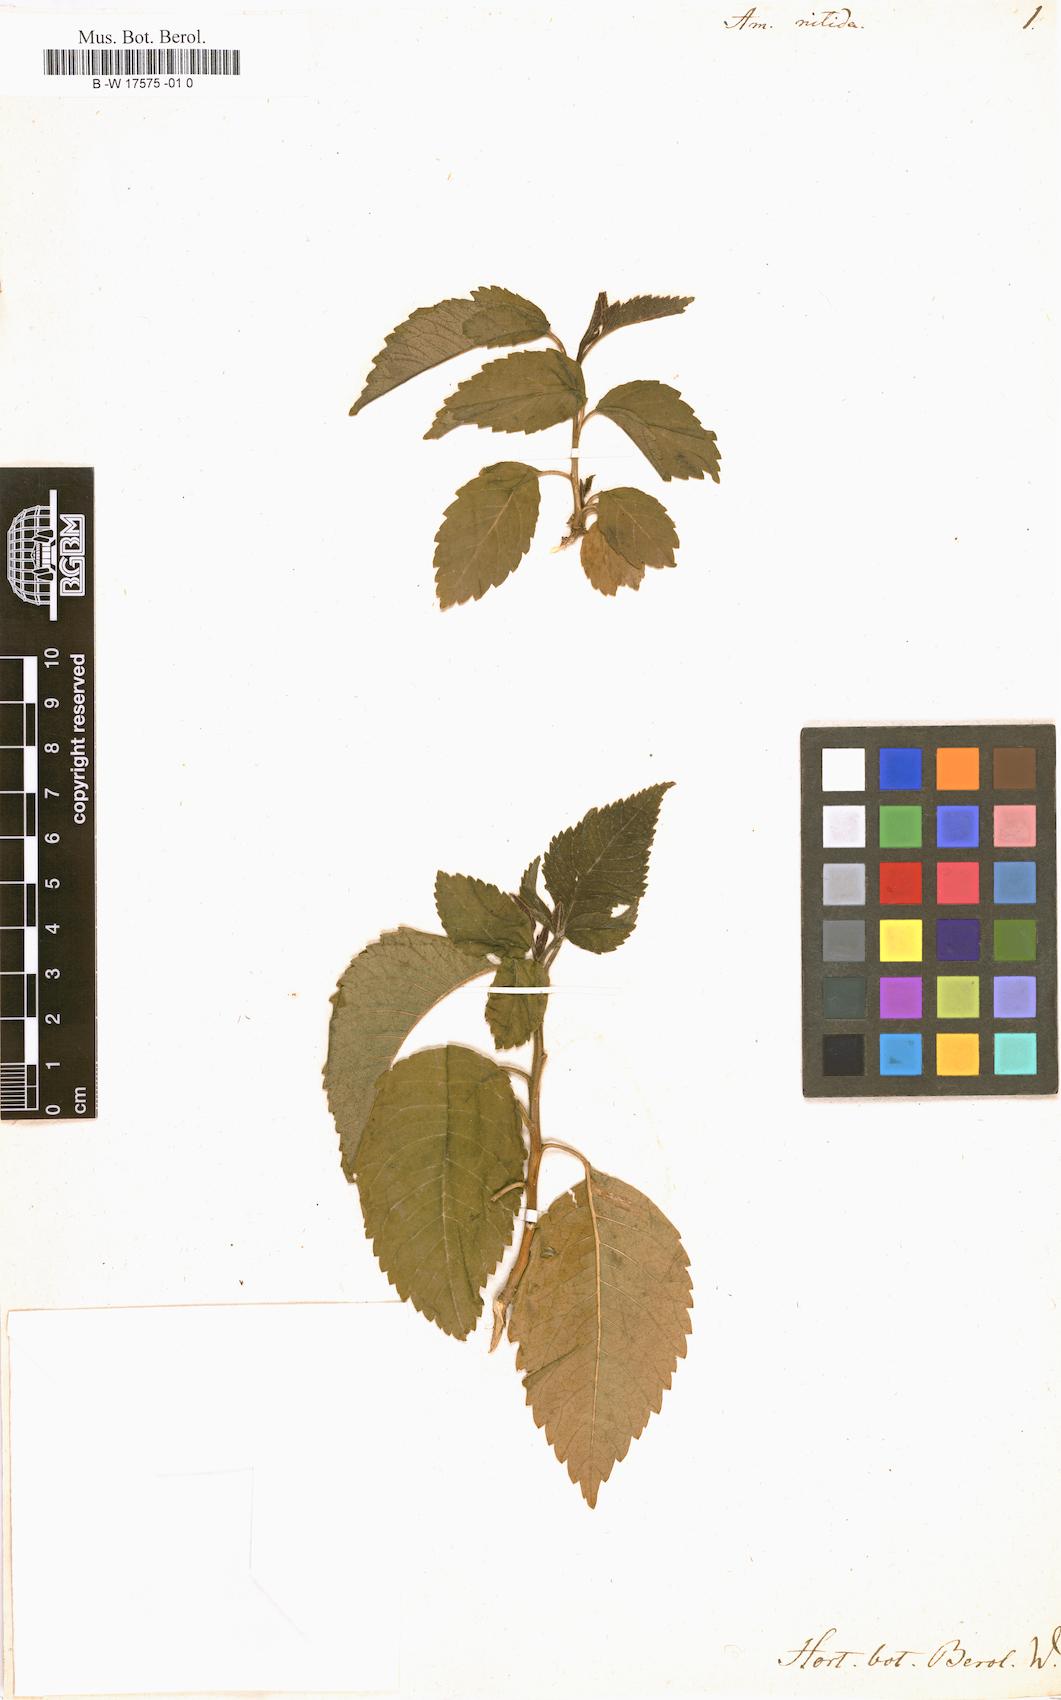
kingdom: Plantae
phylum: Tracheophyta
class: Magnoliopsida
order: Sapindales
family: Sapindaceae
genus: Llagunoa
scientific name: Llagunoa nitida
